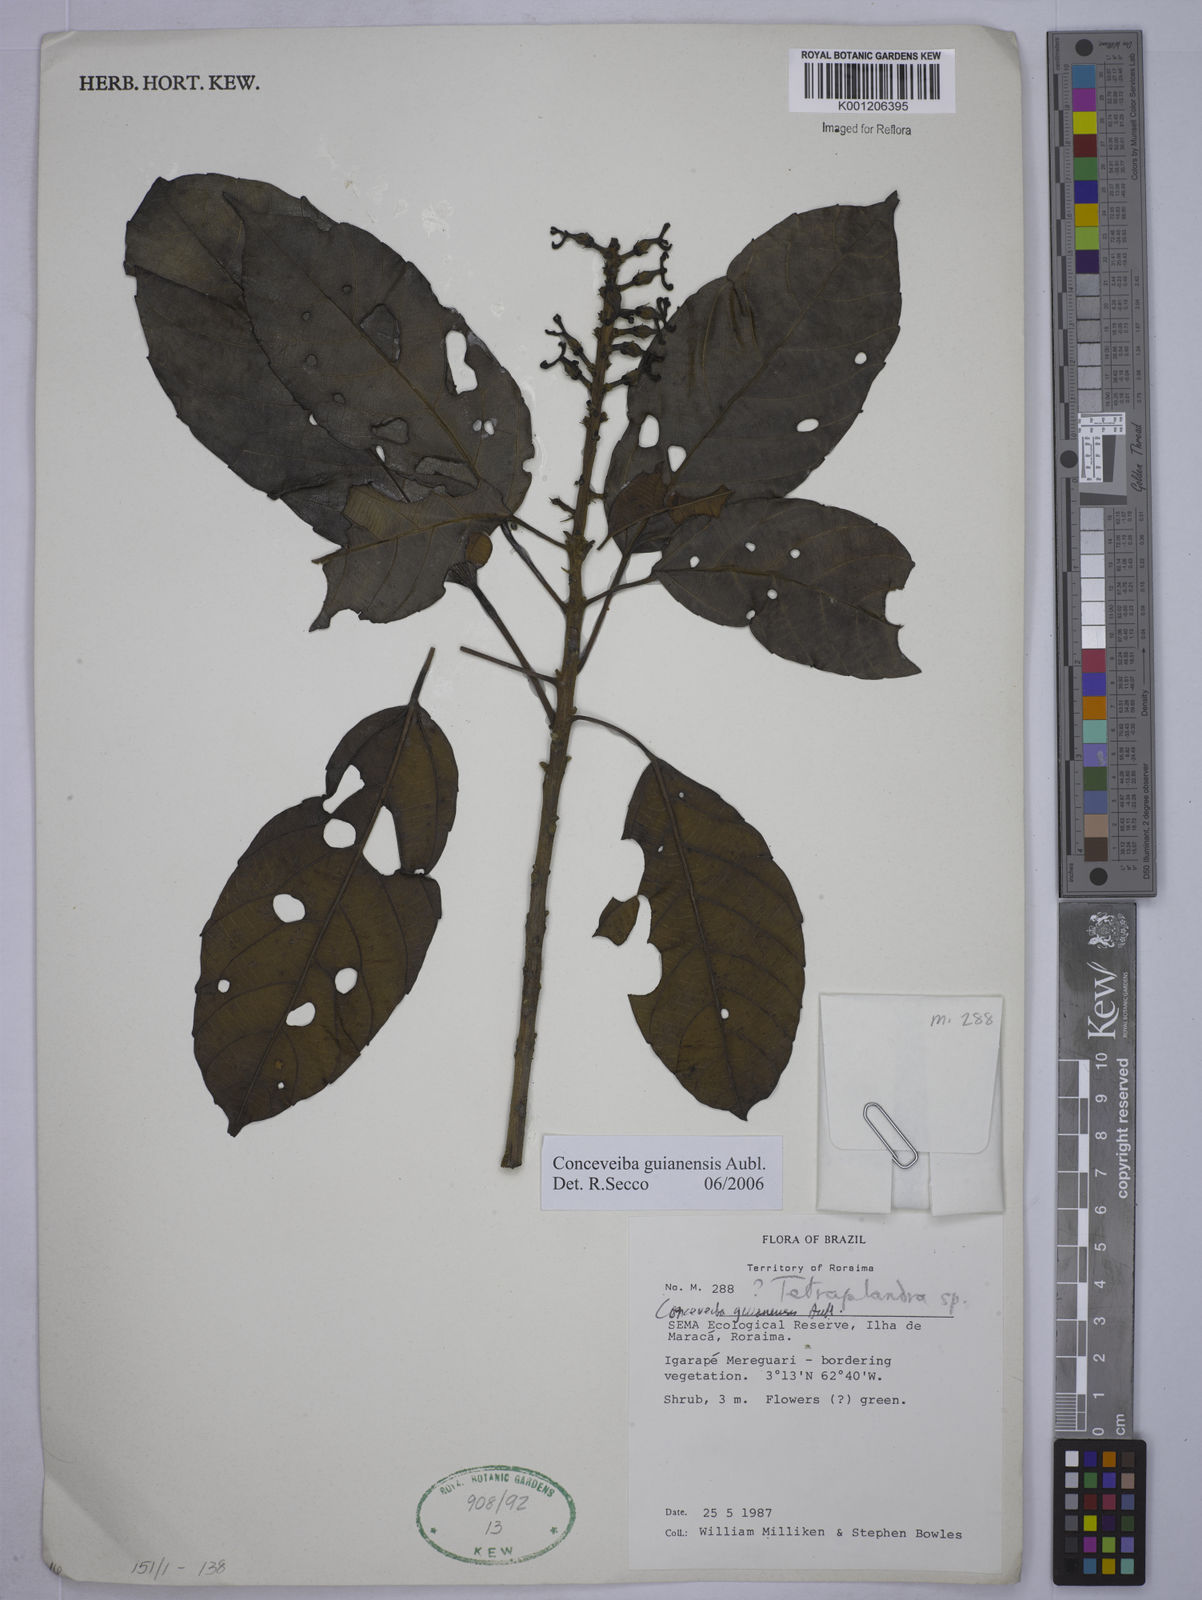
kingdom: Plantae
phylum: Tracheophyta
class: Magnoliopsida
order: Malpighiales
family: Euphorbiaceae
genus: Conceveiba
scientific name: Conceveiba guianensis
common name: Poatoru
